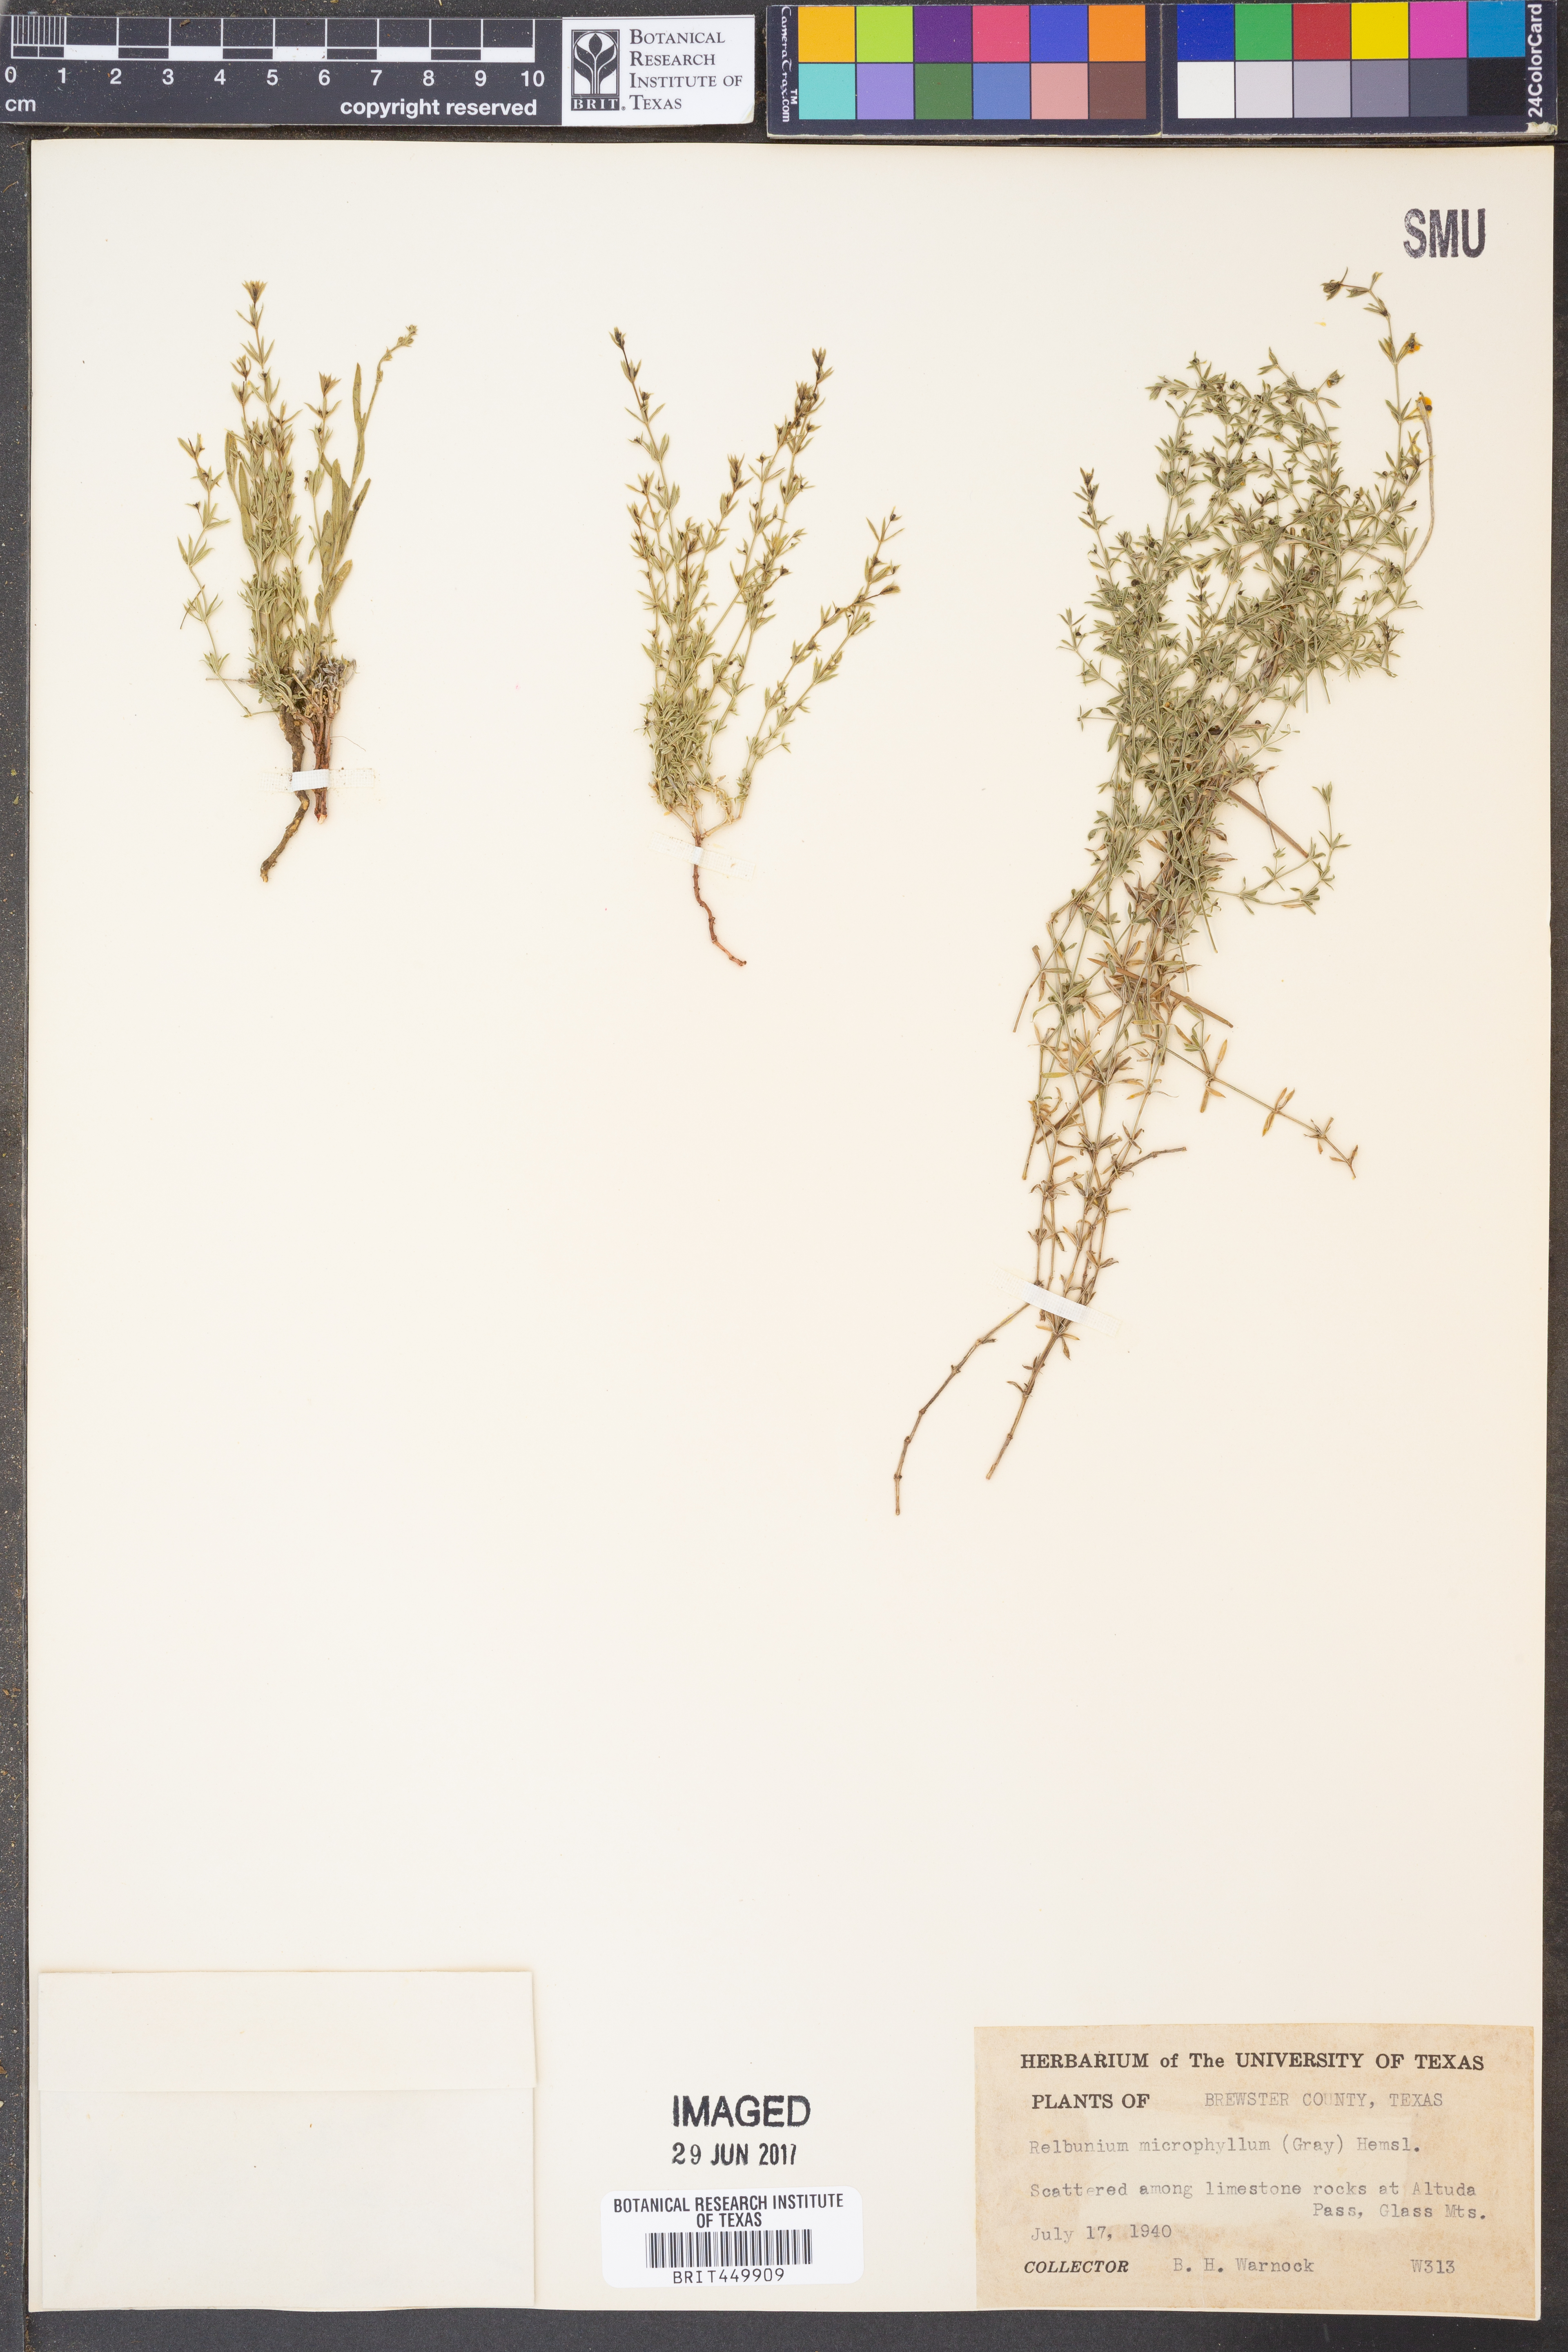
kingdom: Plantae
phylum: Tracheophyta
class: Magnoliopsida
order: Gentianales
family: Rubiaceae
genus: Galium
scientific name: Galium microphyllum
